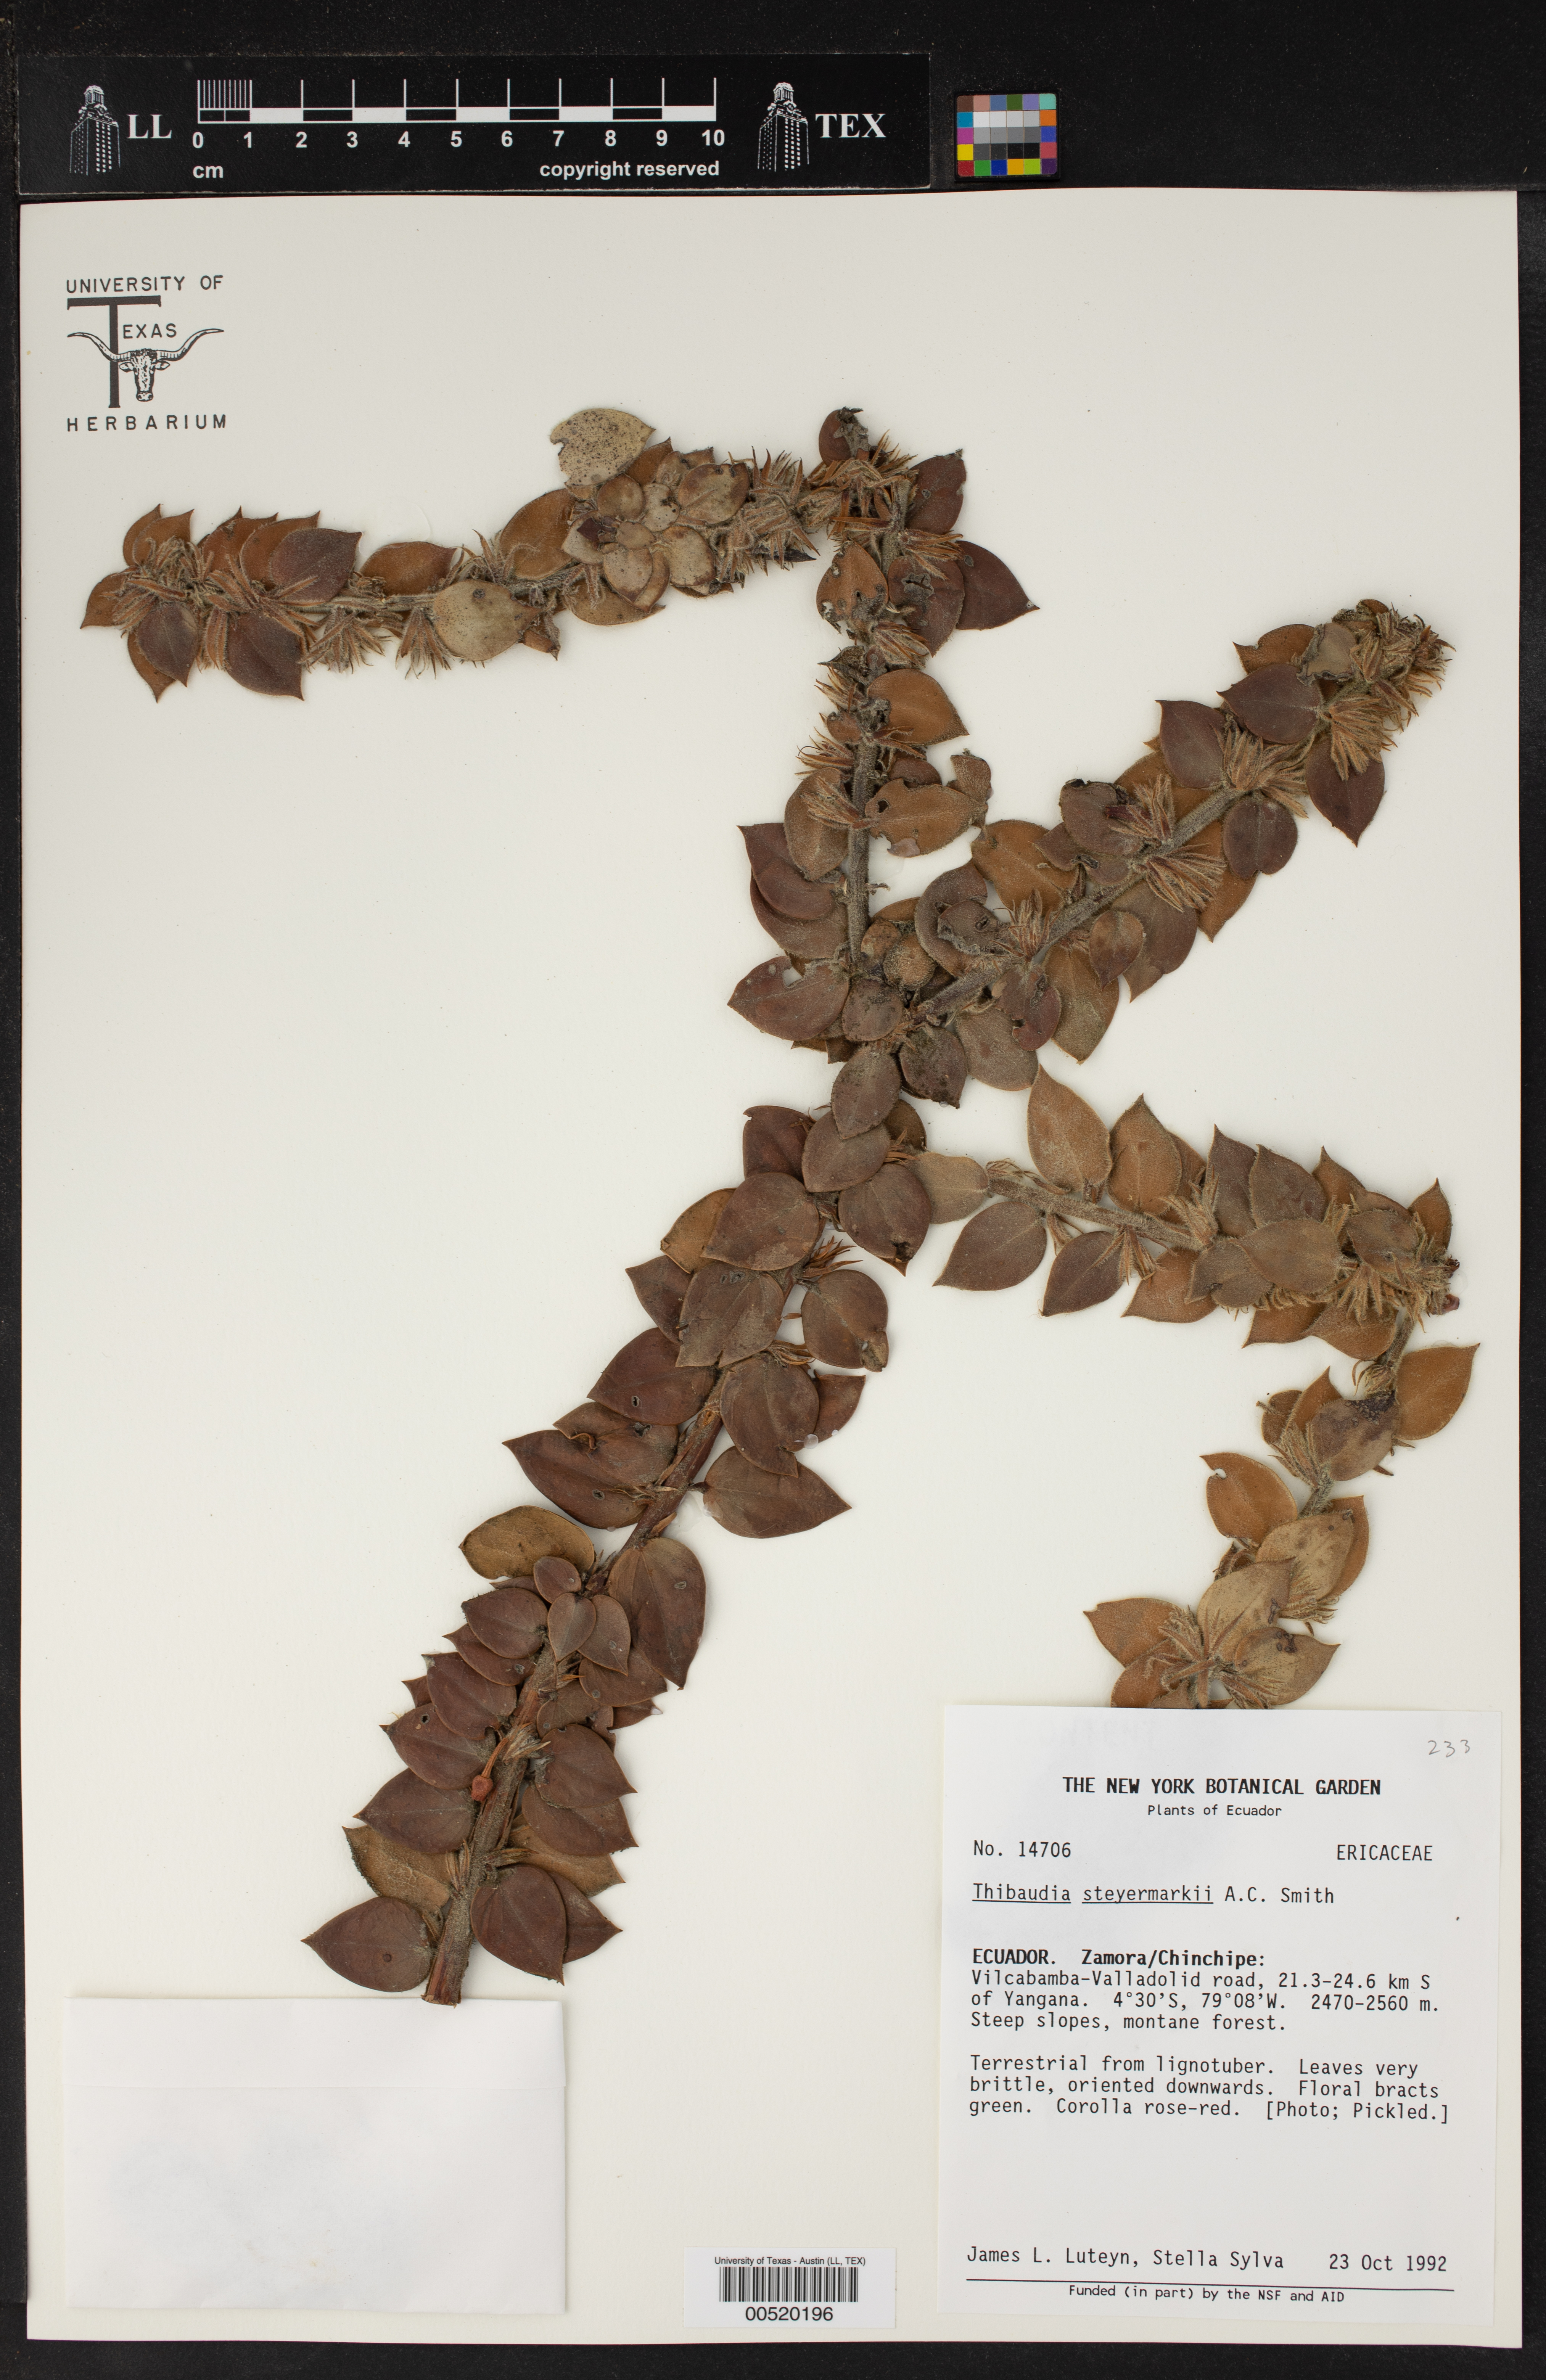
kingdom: Plantae
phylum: Tracheophyta
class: Magnoliopsida
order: Ericales
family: Ericaceae
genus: Thibaudia
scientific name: Thibaudia steyermarkii
